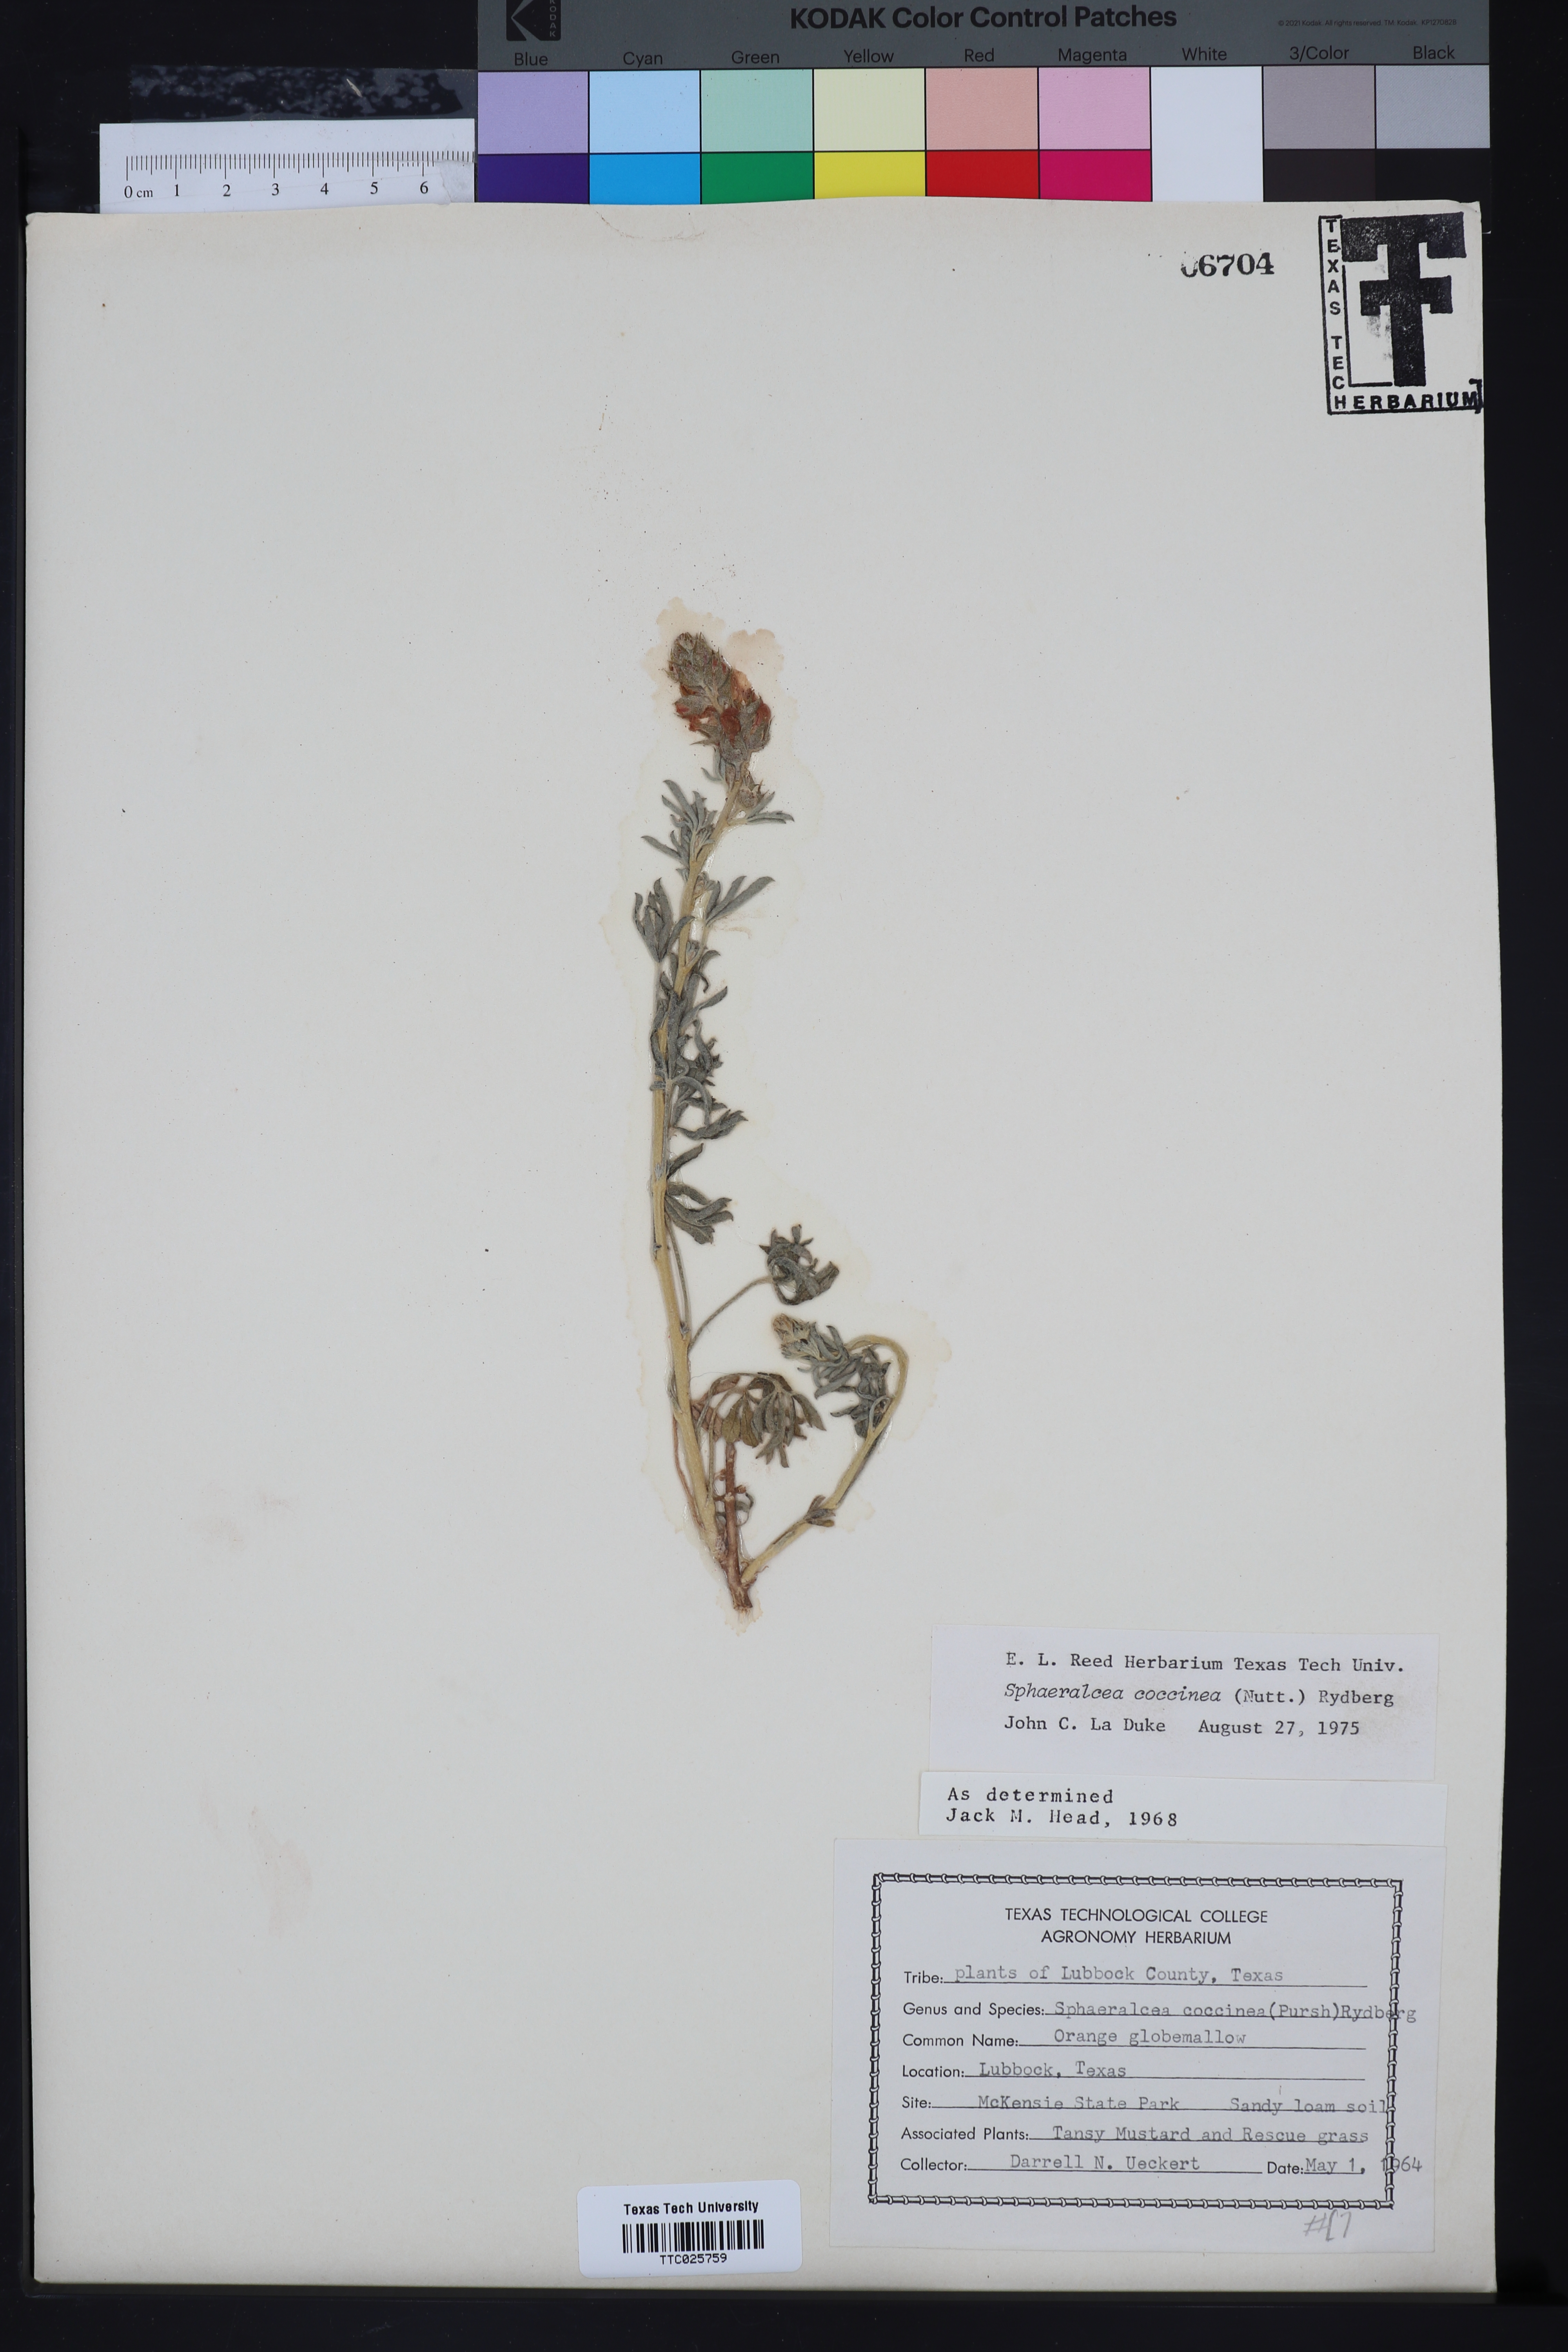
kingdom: Plantae
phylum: Tracheophyta
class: Magnoliopsida
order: Malvales
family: Malvaceae
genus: Sphaeralcea
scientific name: Sphaeralcea coccinea
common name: Moss-rose
